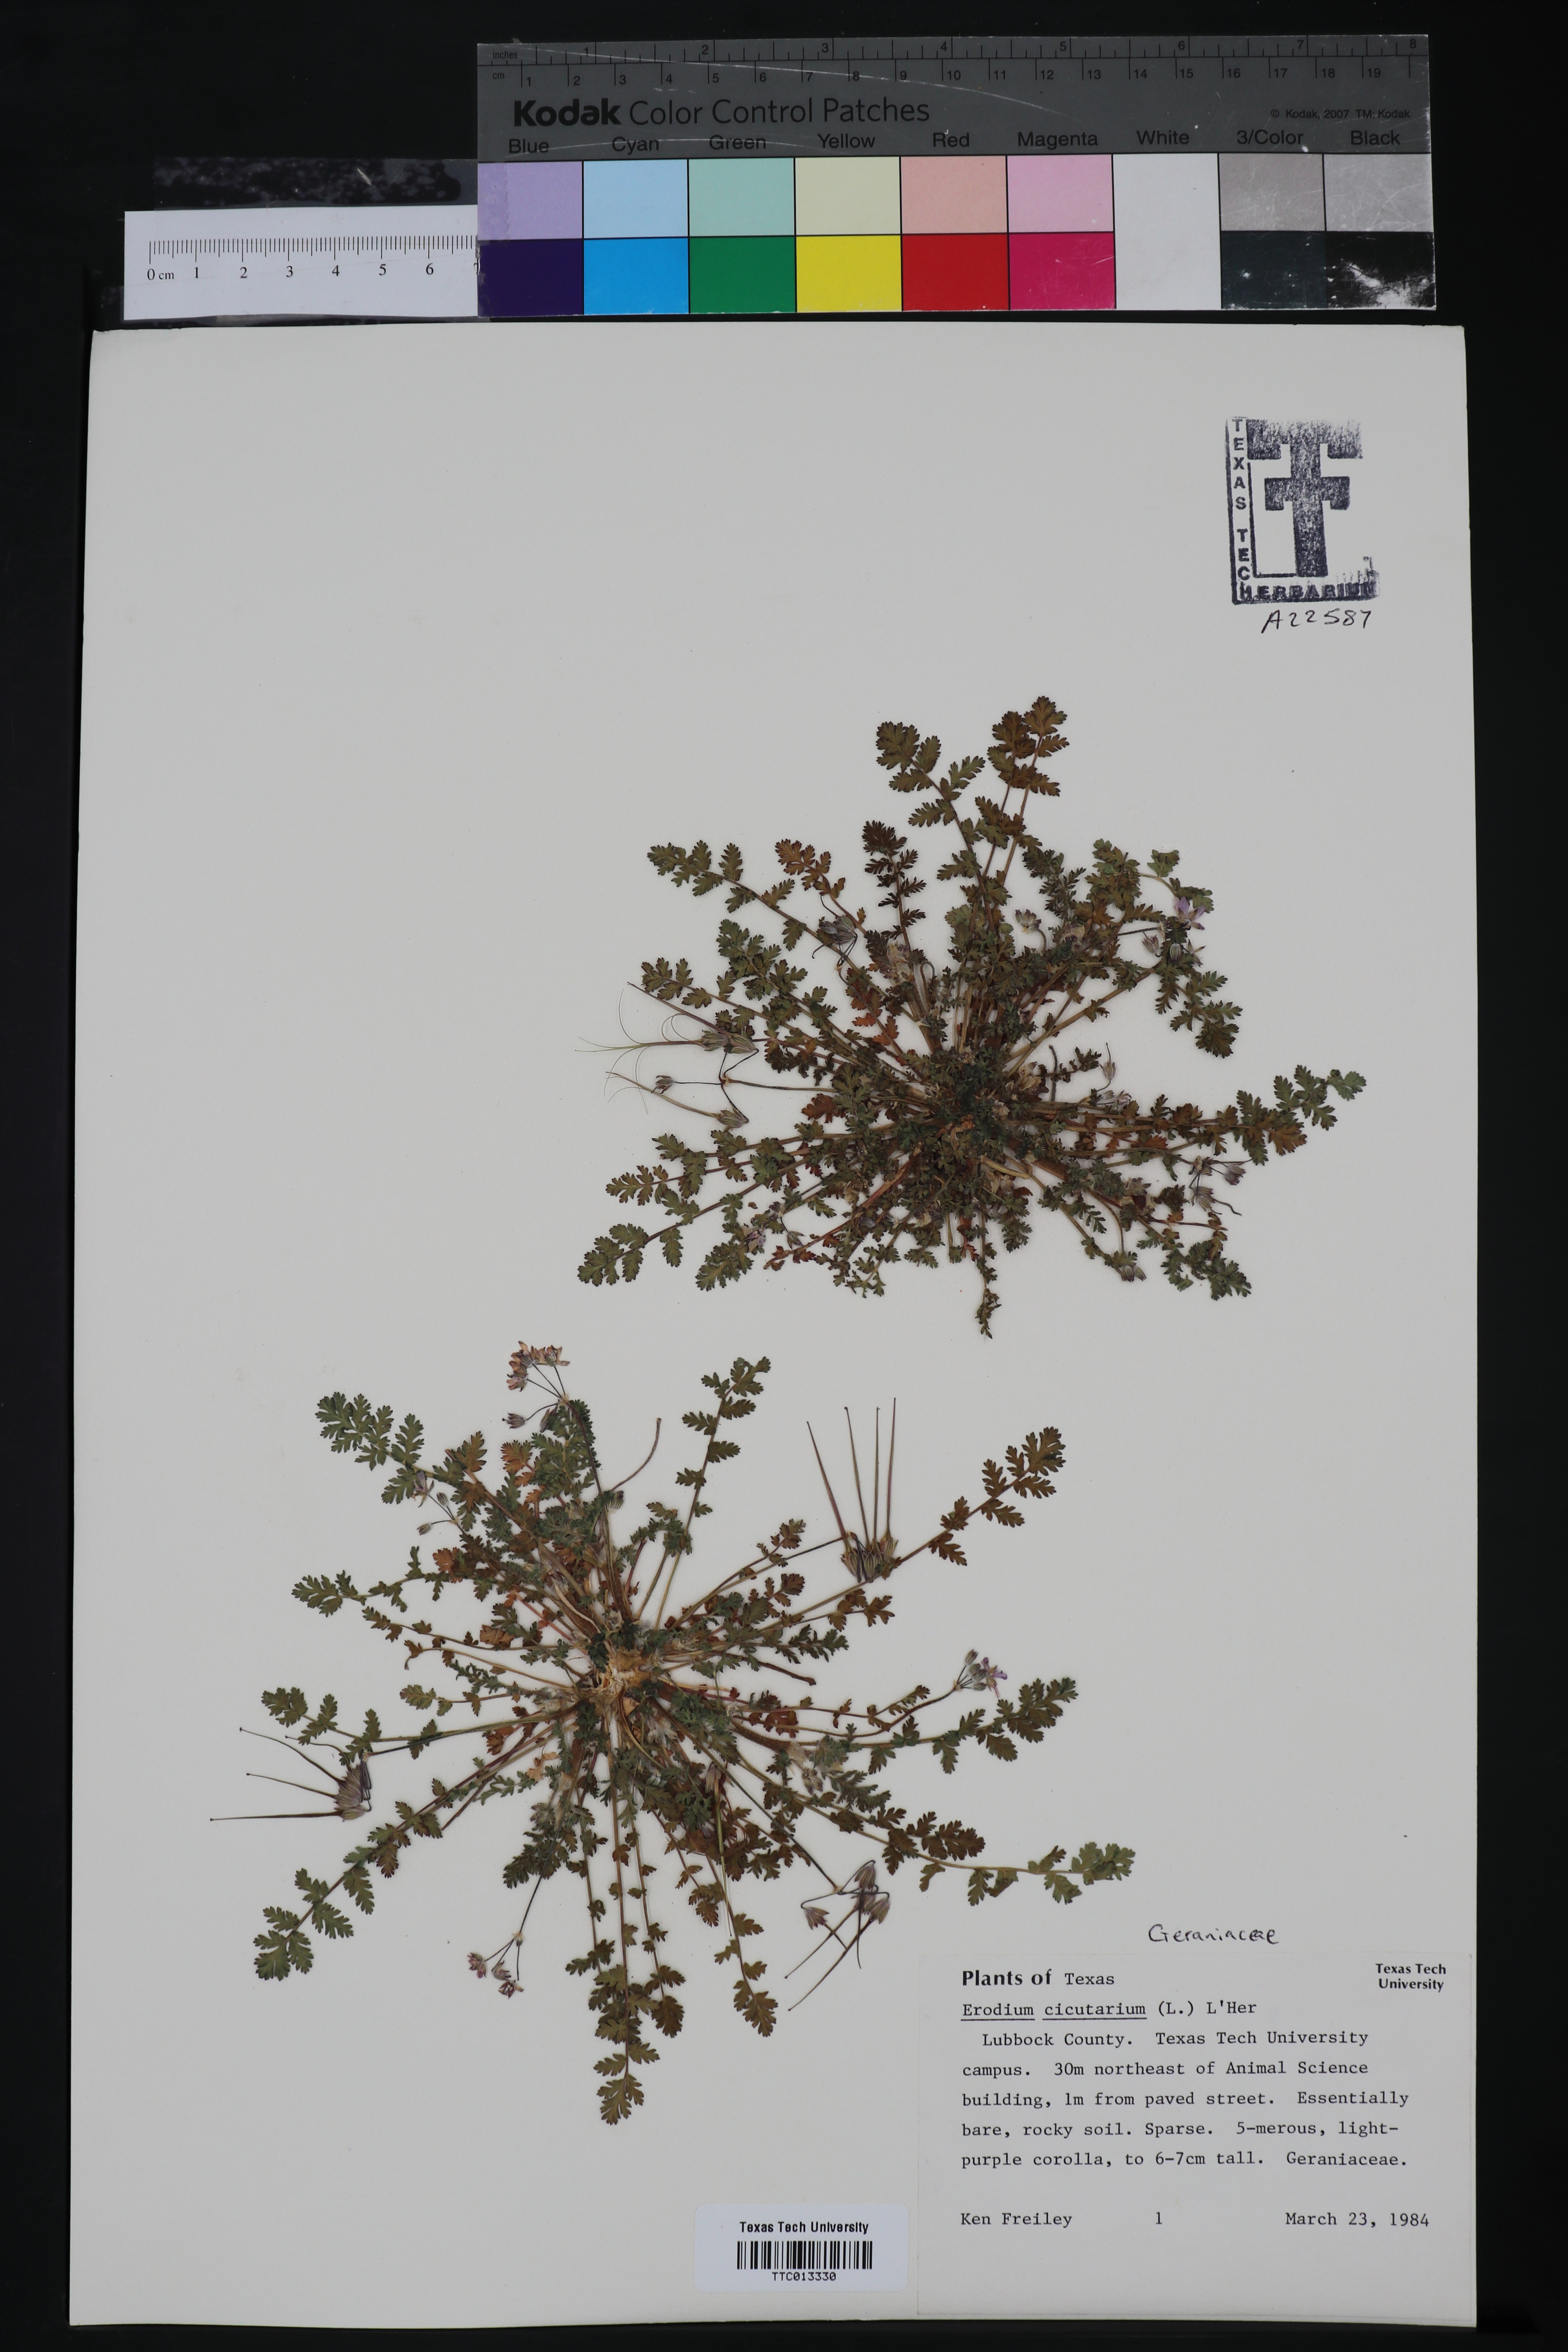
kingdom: Plantae
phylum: Tracheophyta
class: Magnoliopsida
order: Geraniales
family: Geraniaceae
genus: Erodium
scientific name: Erodium cicutarium
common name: Common stork's-bill
